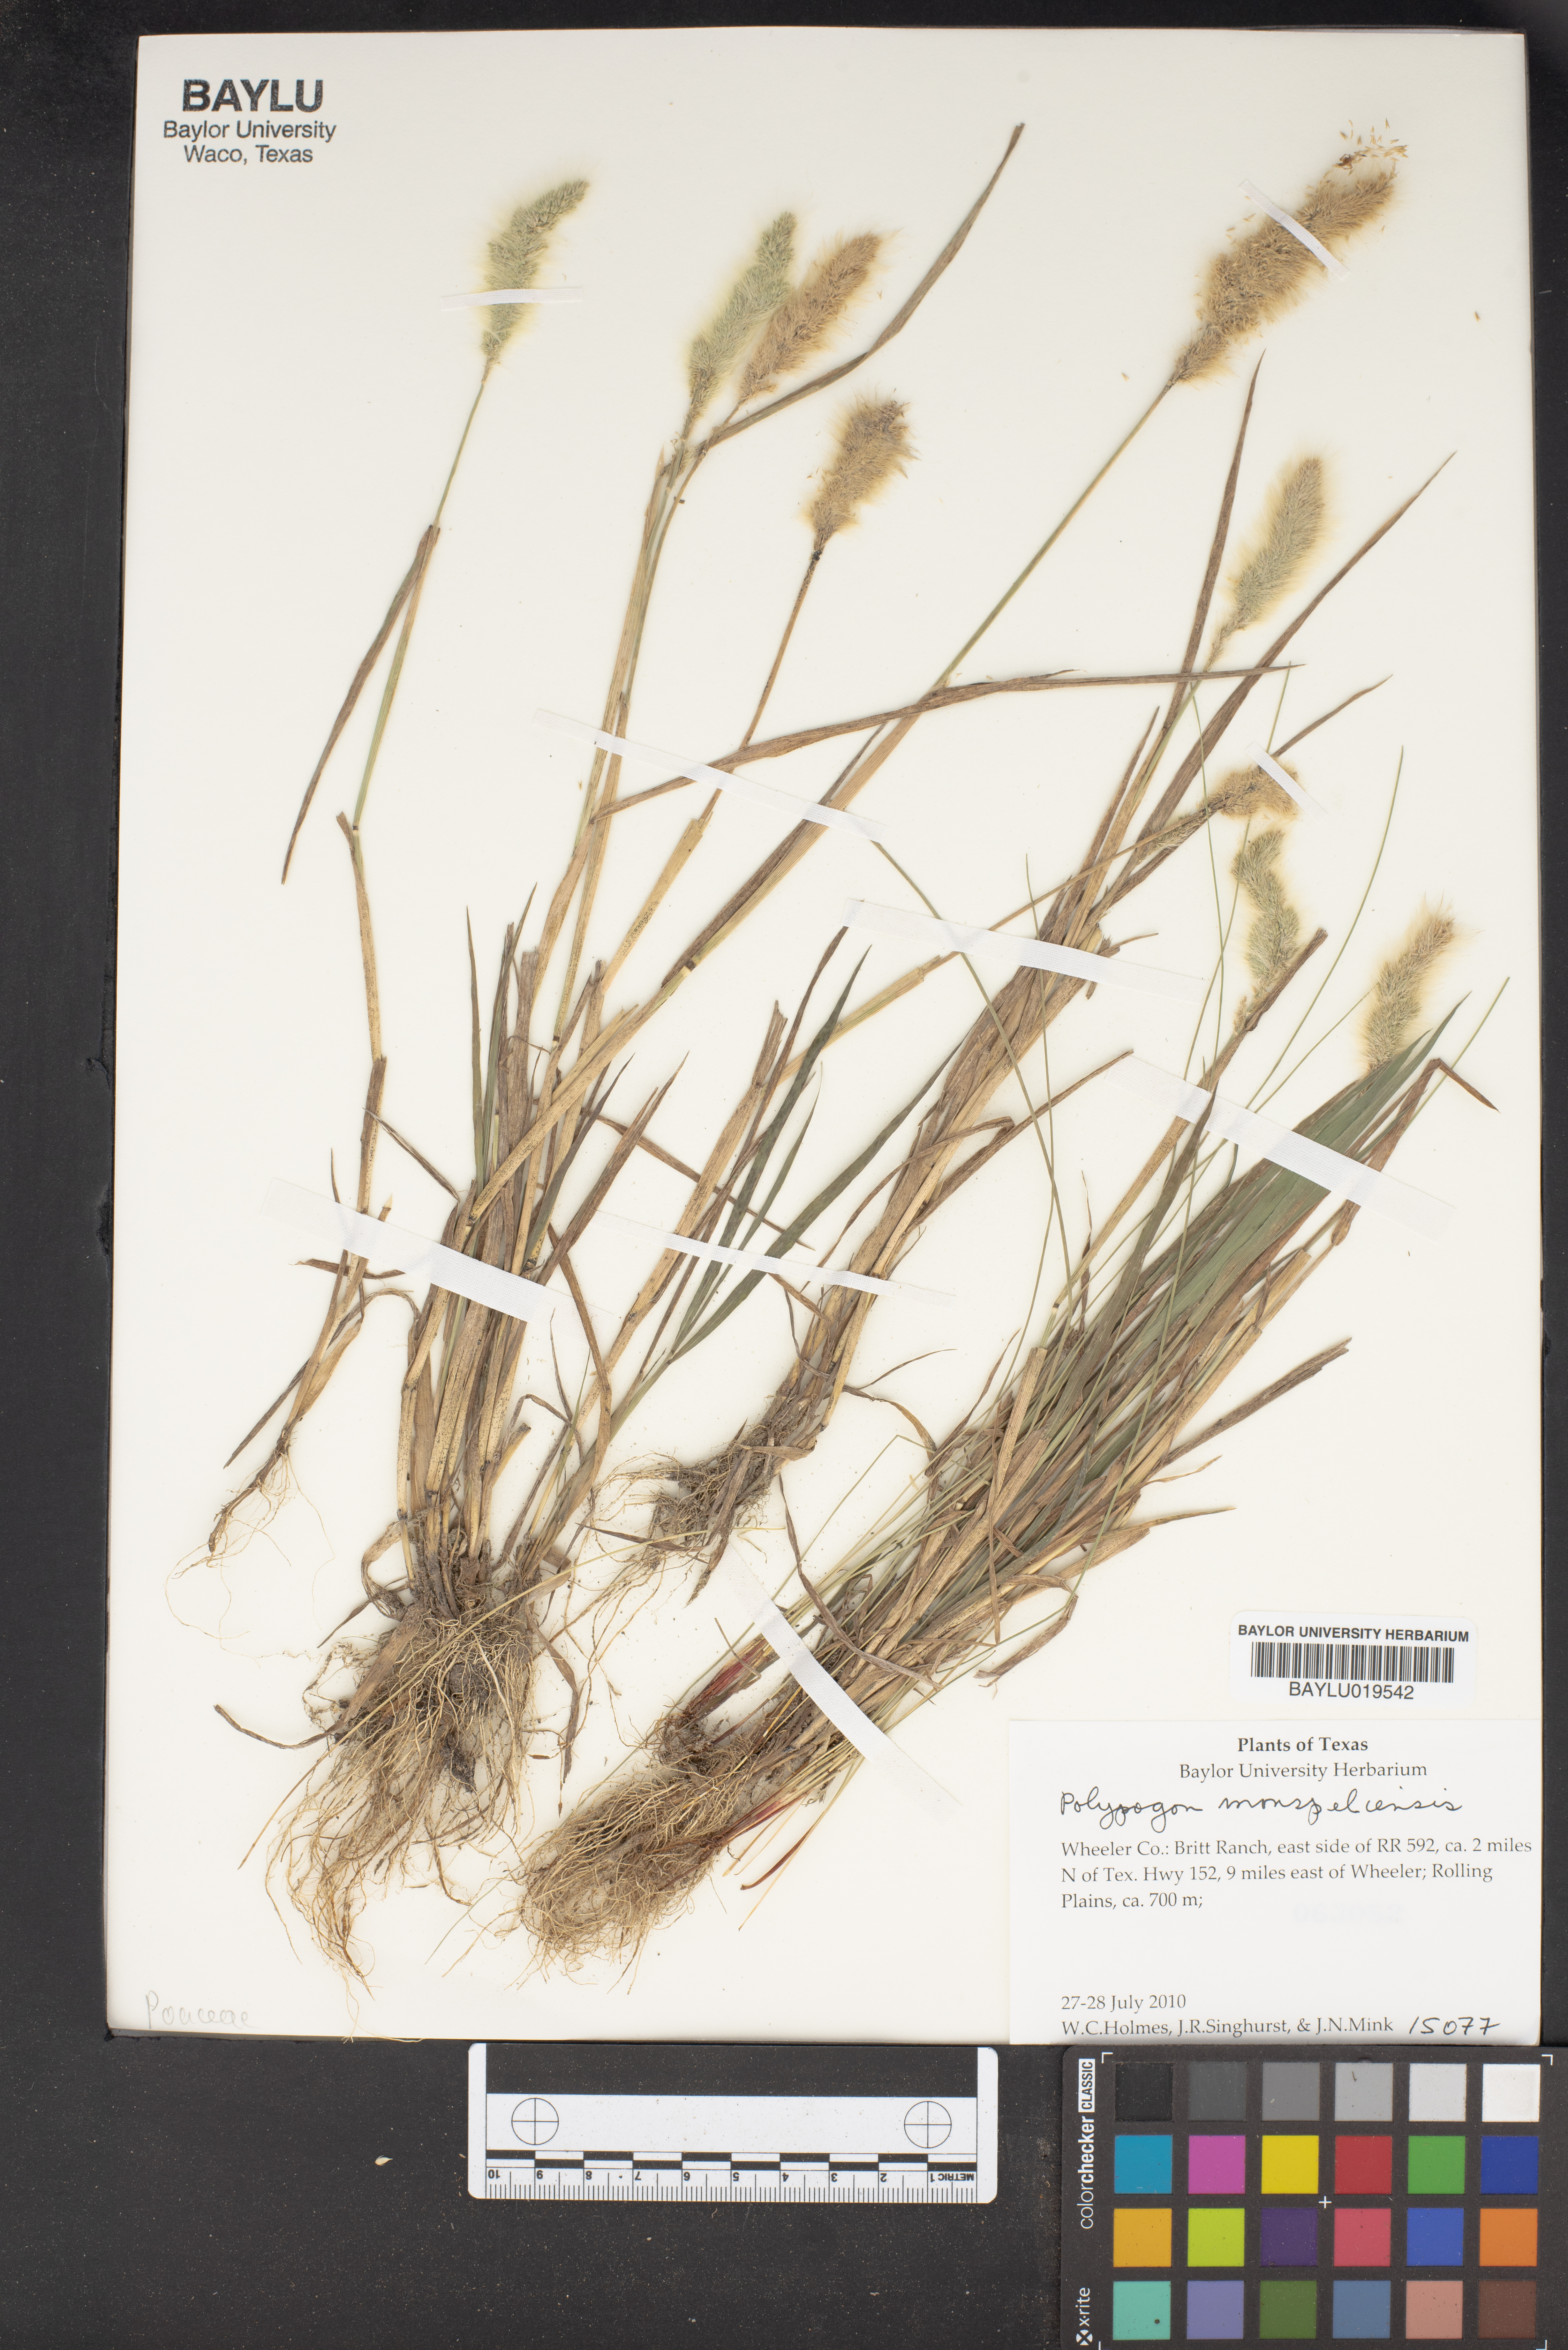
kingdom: Plantae
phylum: Tracheophyta
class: Liliopsida
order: Poales
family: Poaceae
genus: Polypogon
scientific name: Polypogon monspeliensis
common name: Annual rabbitsfoot grass
